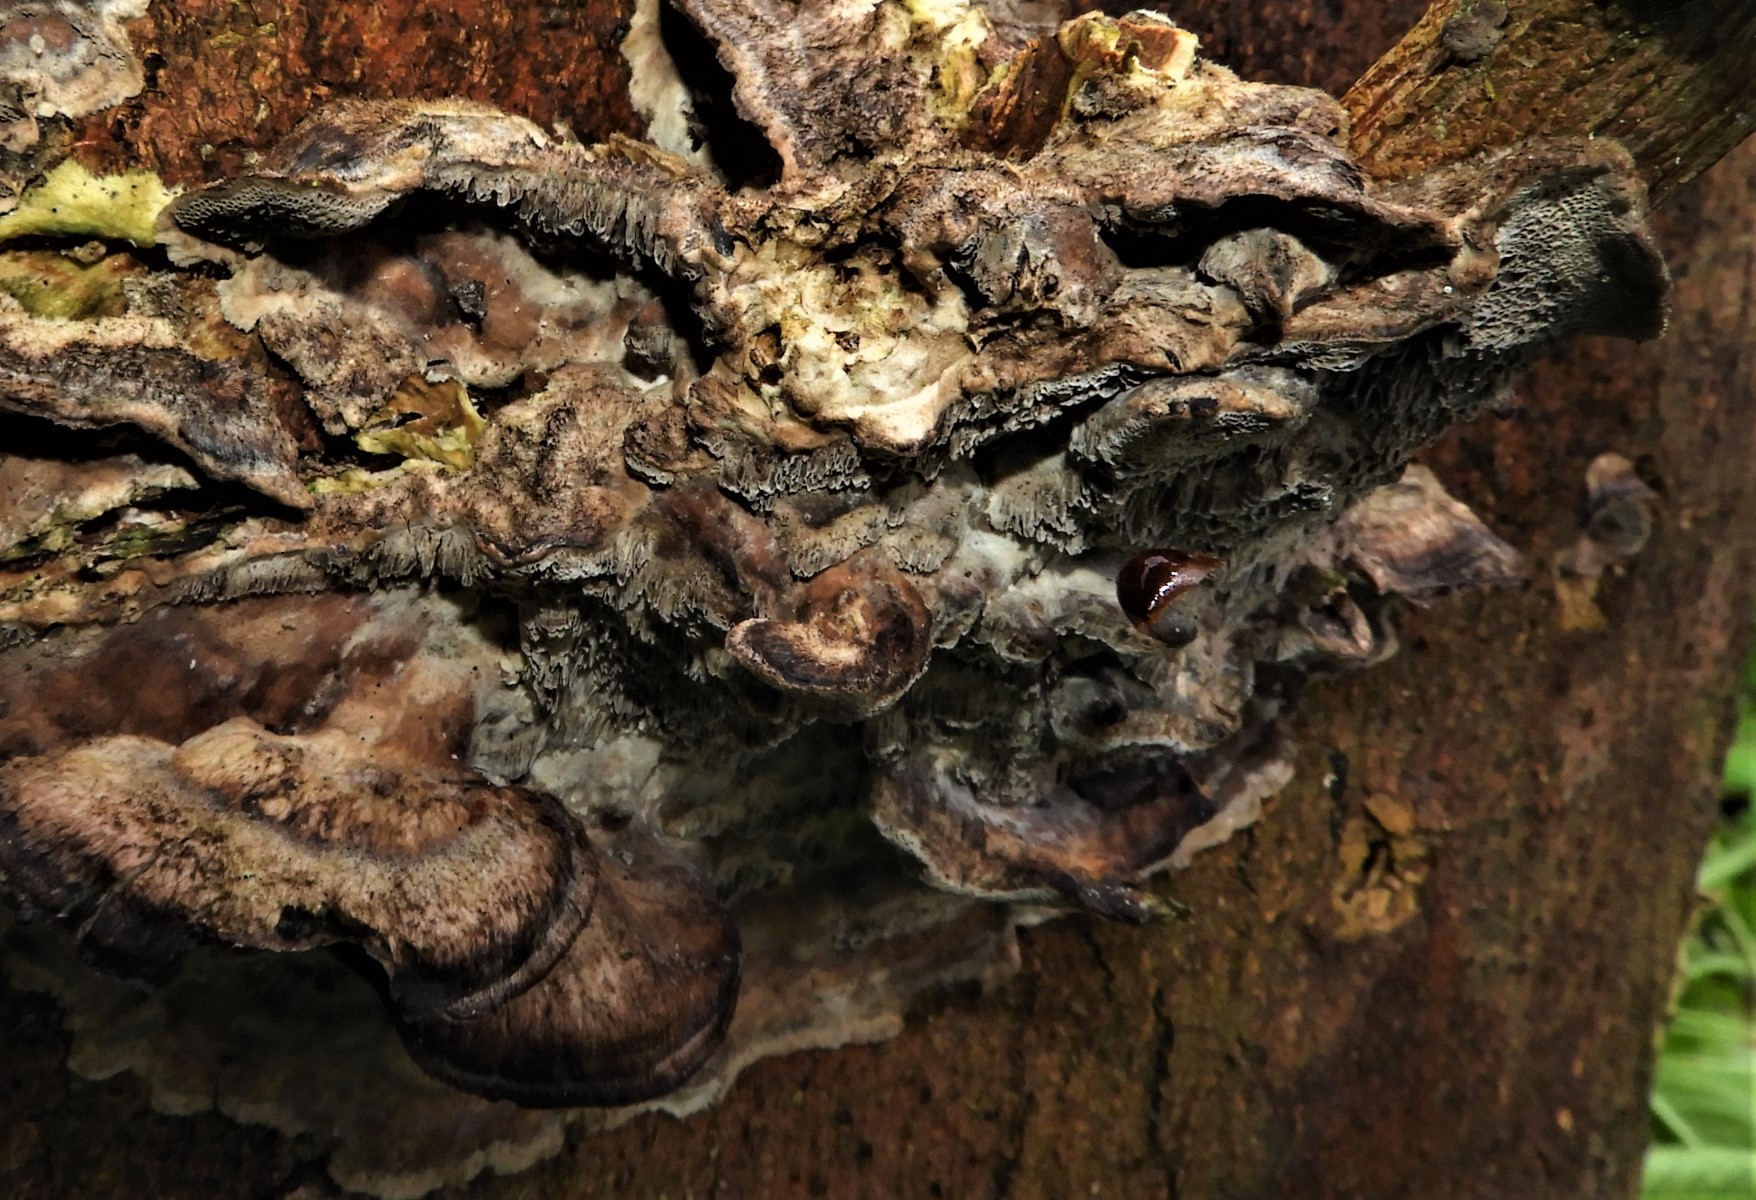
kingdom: Fungi
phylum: Basidiomycota
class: Agaricomycetes
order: Polyporales
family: Phanerochaetaceae
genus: Bjerkandera
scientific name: Bjerkandera adusta
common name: sveden sodporesvamp
